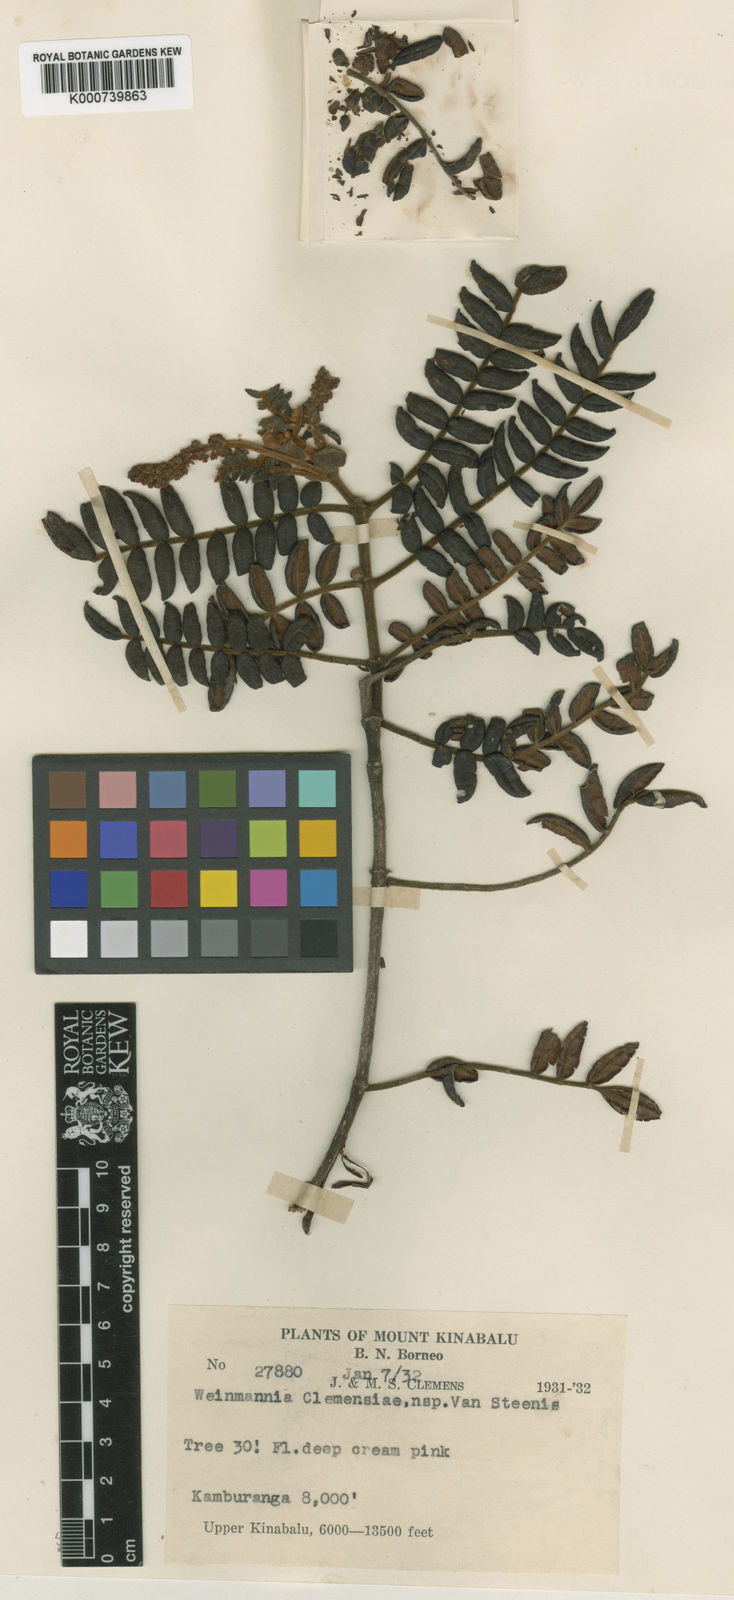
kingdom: Plantae
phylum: Tracheophyta
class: Magnoliopsida
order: Oxalidales
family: Cunoniaceae
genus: Pterophylla
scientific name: Pterophylla clemensiae
